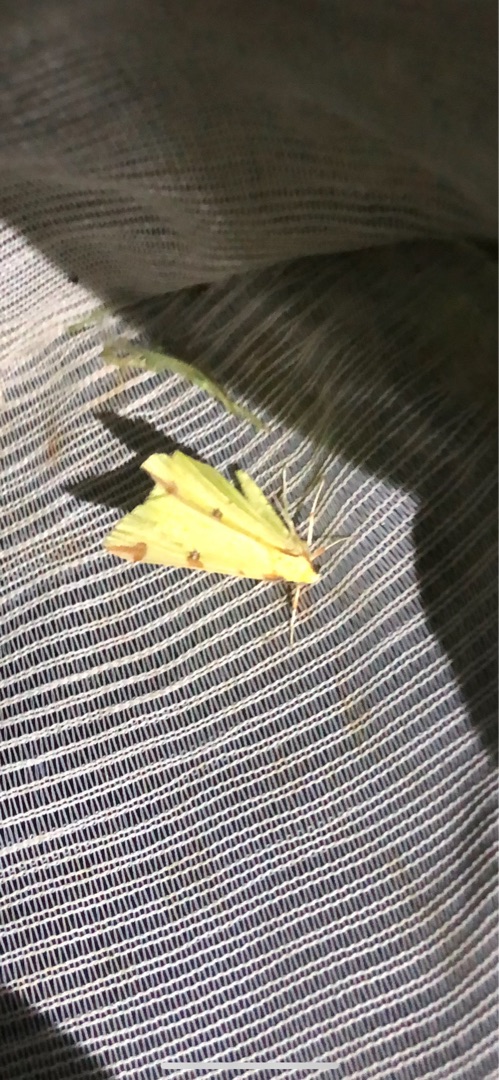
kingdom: Animalia
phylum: Arthropoda
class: Insecta
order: Lepidoptera
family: Geometridae
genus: Opisthograptis
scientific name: Opisthograptis luteolata
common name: Citronmåler
